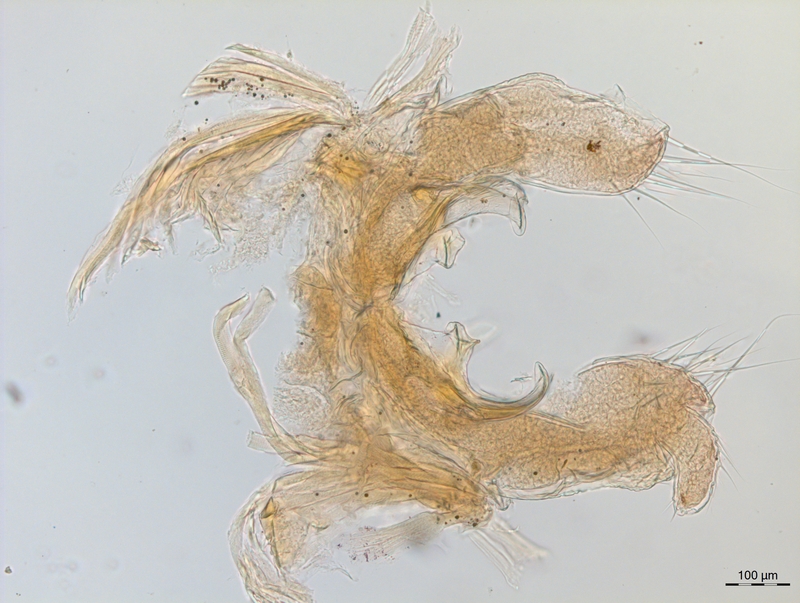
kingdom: Animalia
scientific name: Animalia
